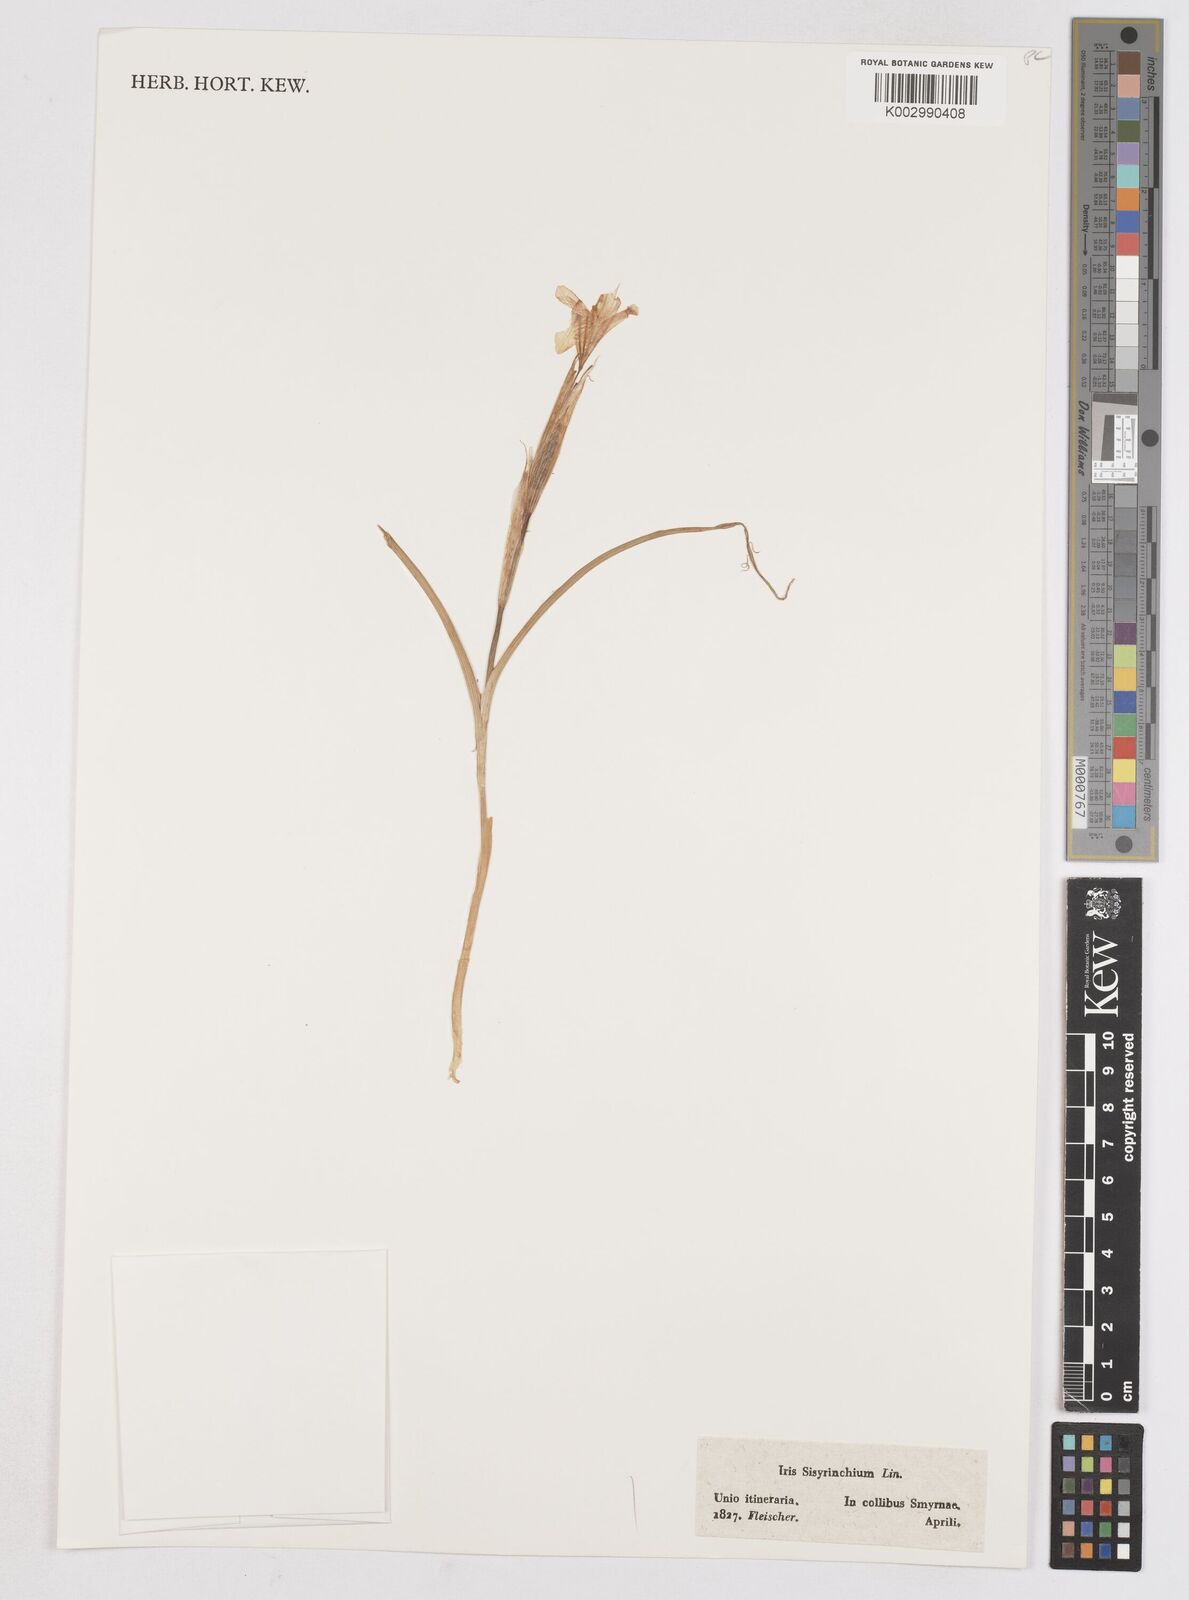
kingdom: Plantae
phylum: Tracheophyta
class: Liliopsida
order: Asparagales
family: Iridaceae
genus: Moraea
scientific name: Moraea sisyrinchium
